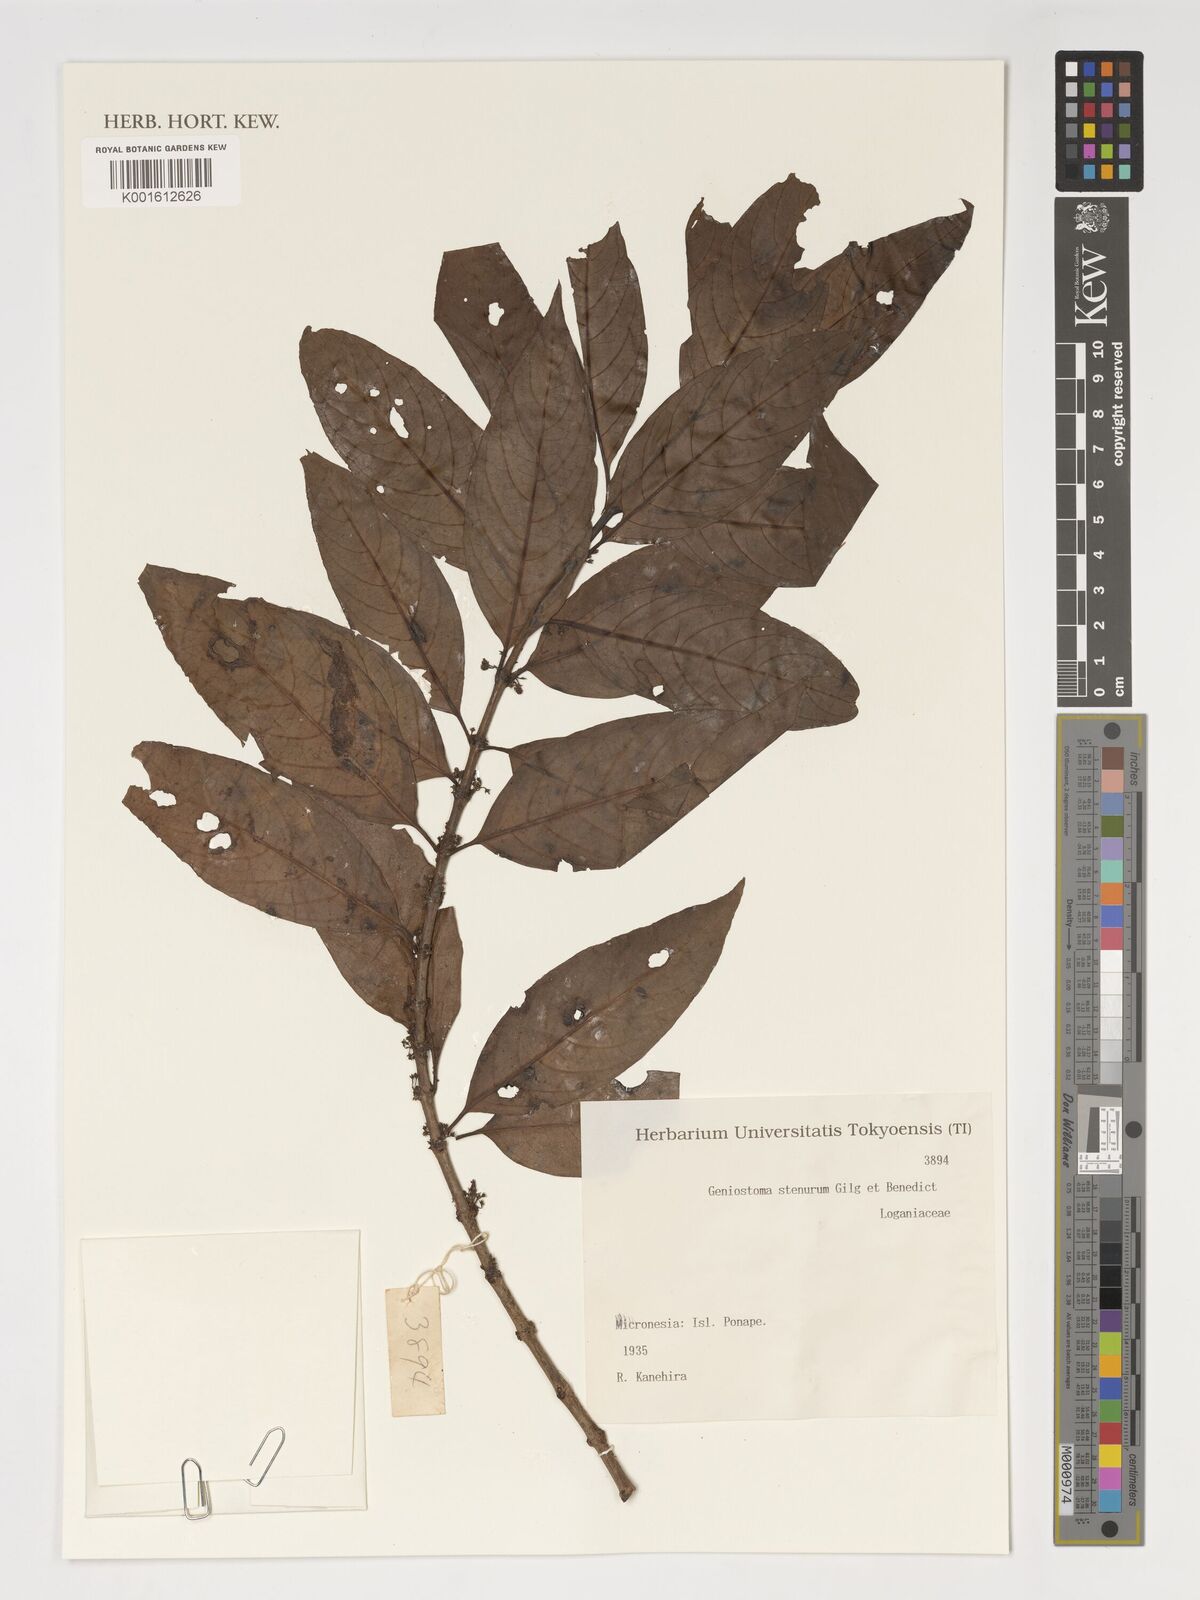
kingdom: Plantae
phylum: Tracheophyta
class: Magnoliopsida
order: Gentianales
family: Loganiaceae
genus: Geniostoma
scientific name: Geniostoma rupestre
